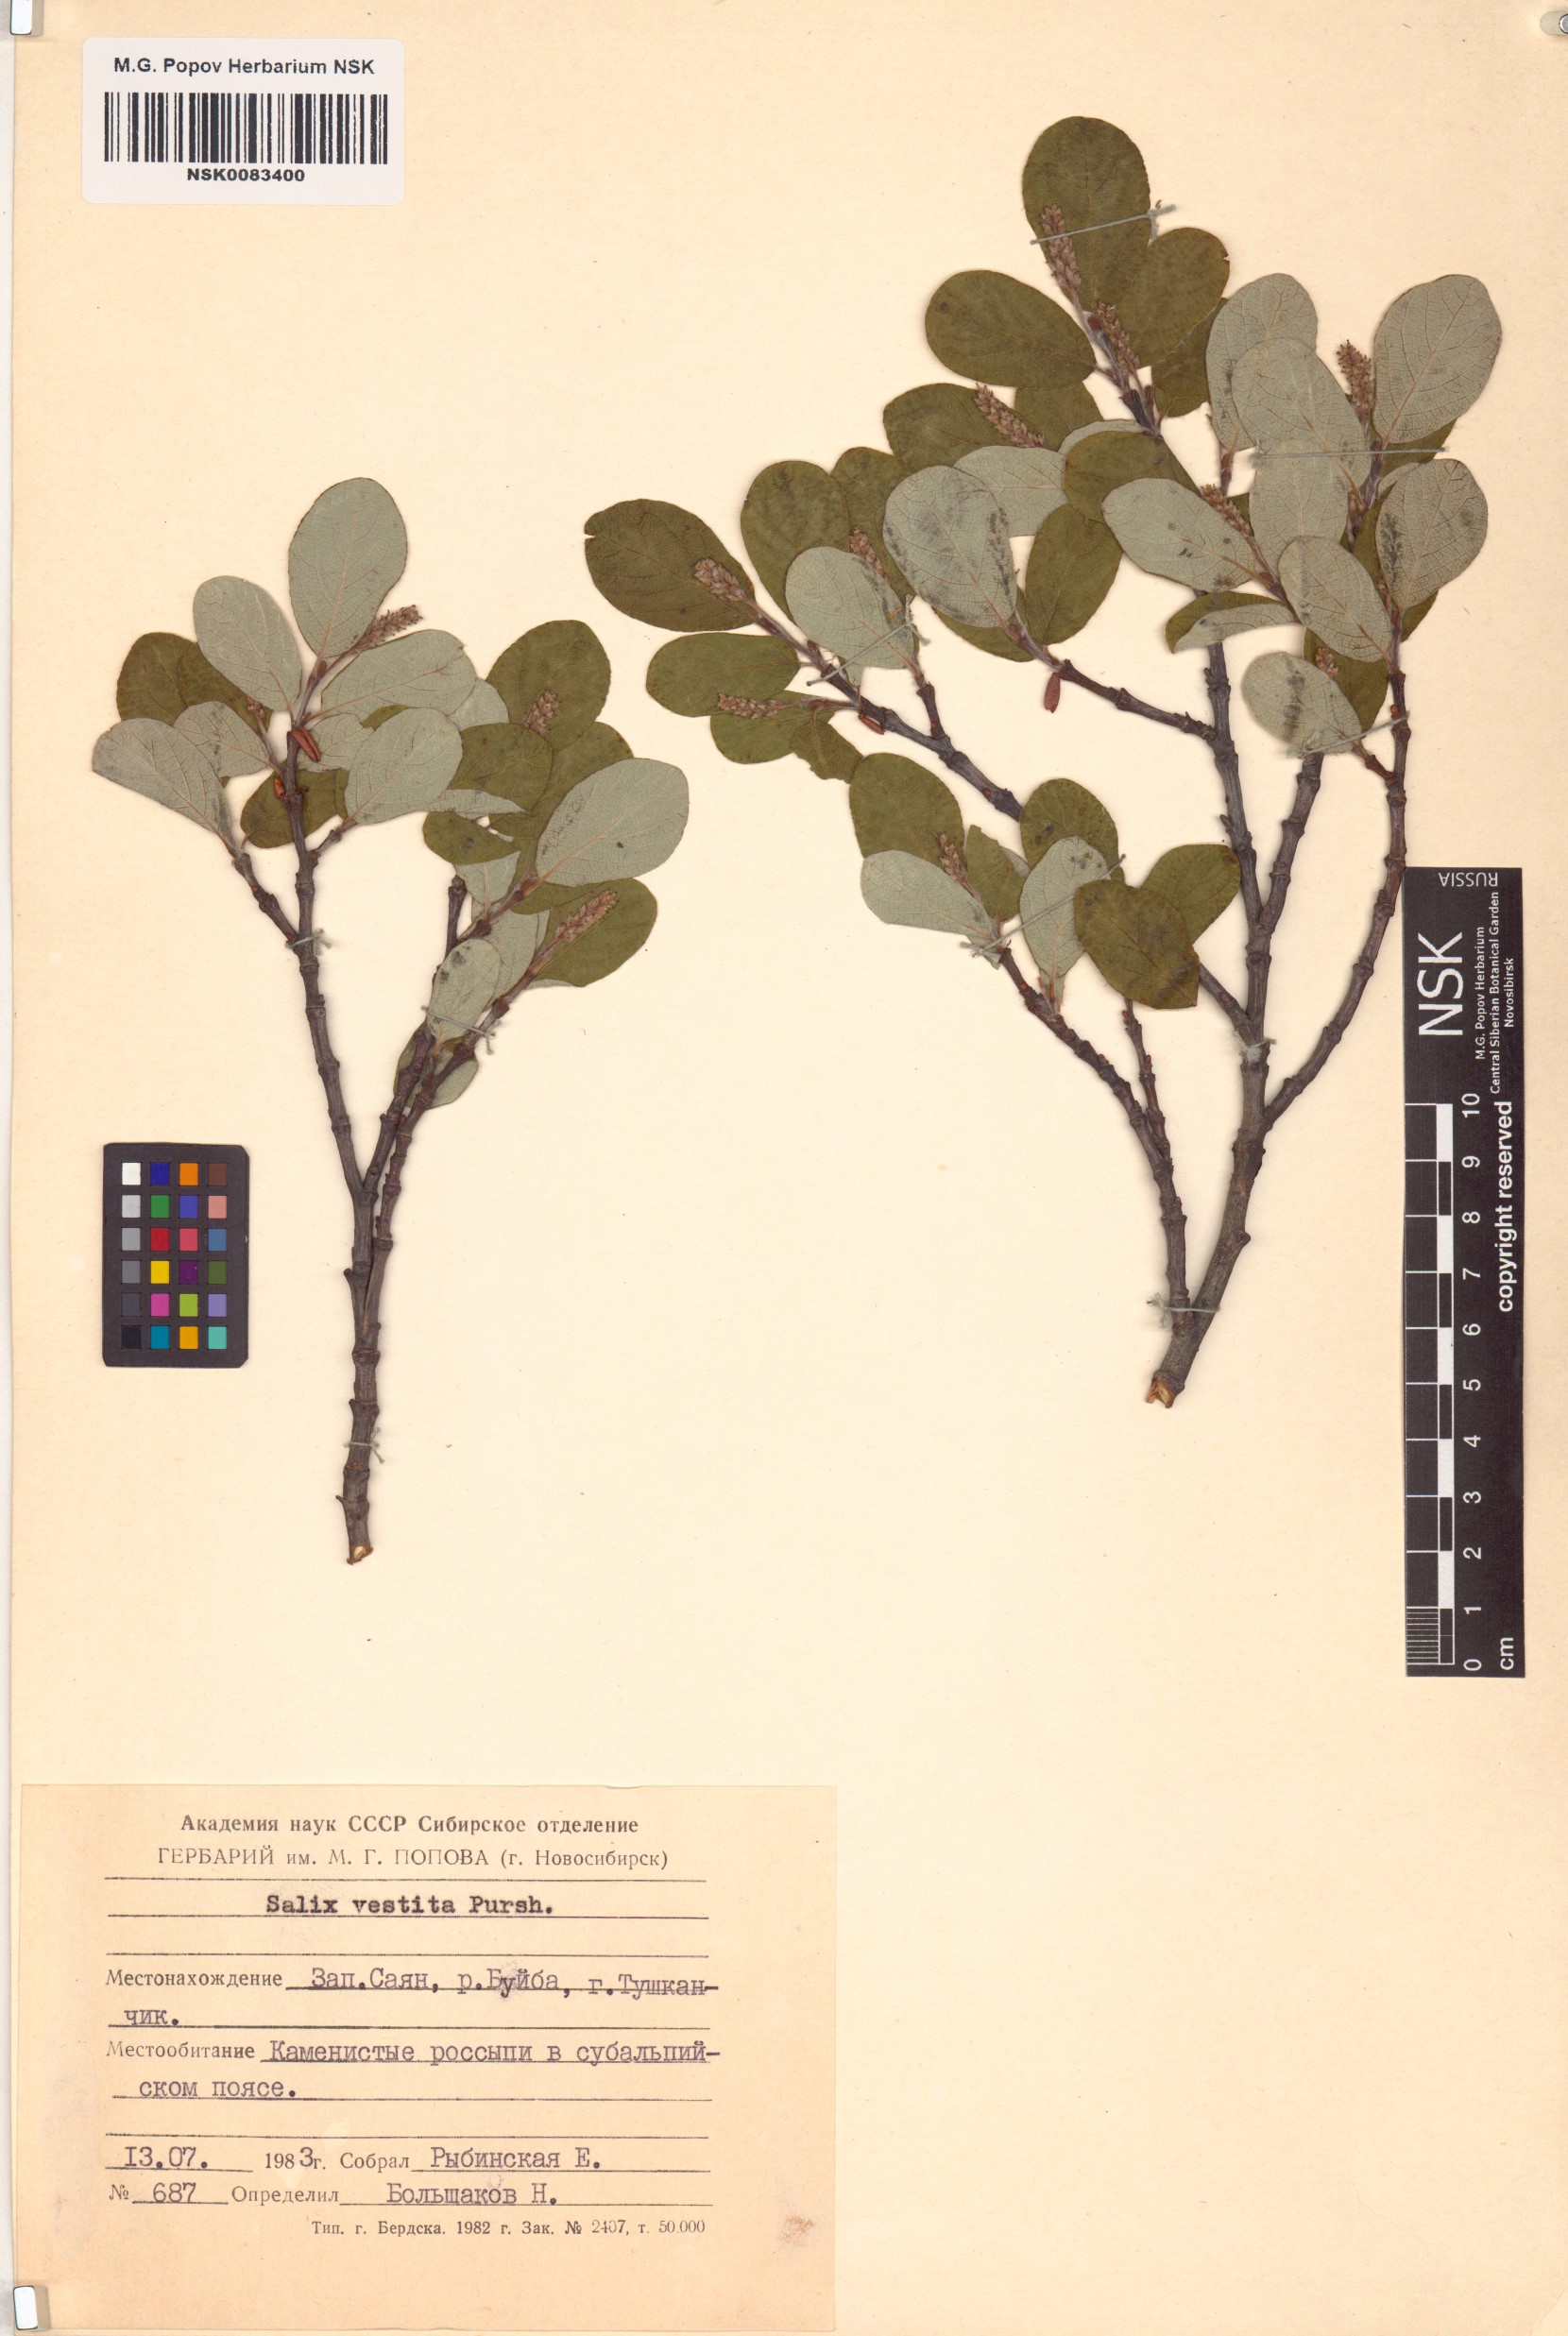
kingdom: Plantae
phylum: Tracheophyta
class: Magnoliopsida
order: Malpighiales
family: Salicaceae
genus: Salix
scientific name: Salix vestita
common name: Hairy willow
